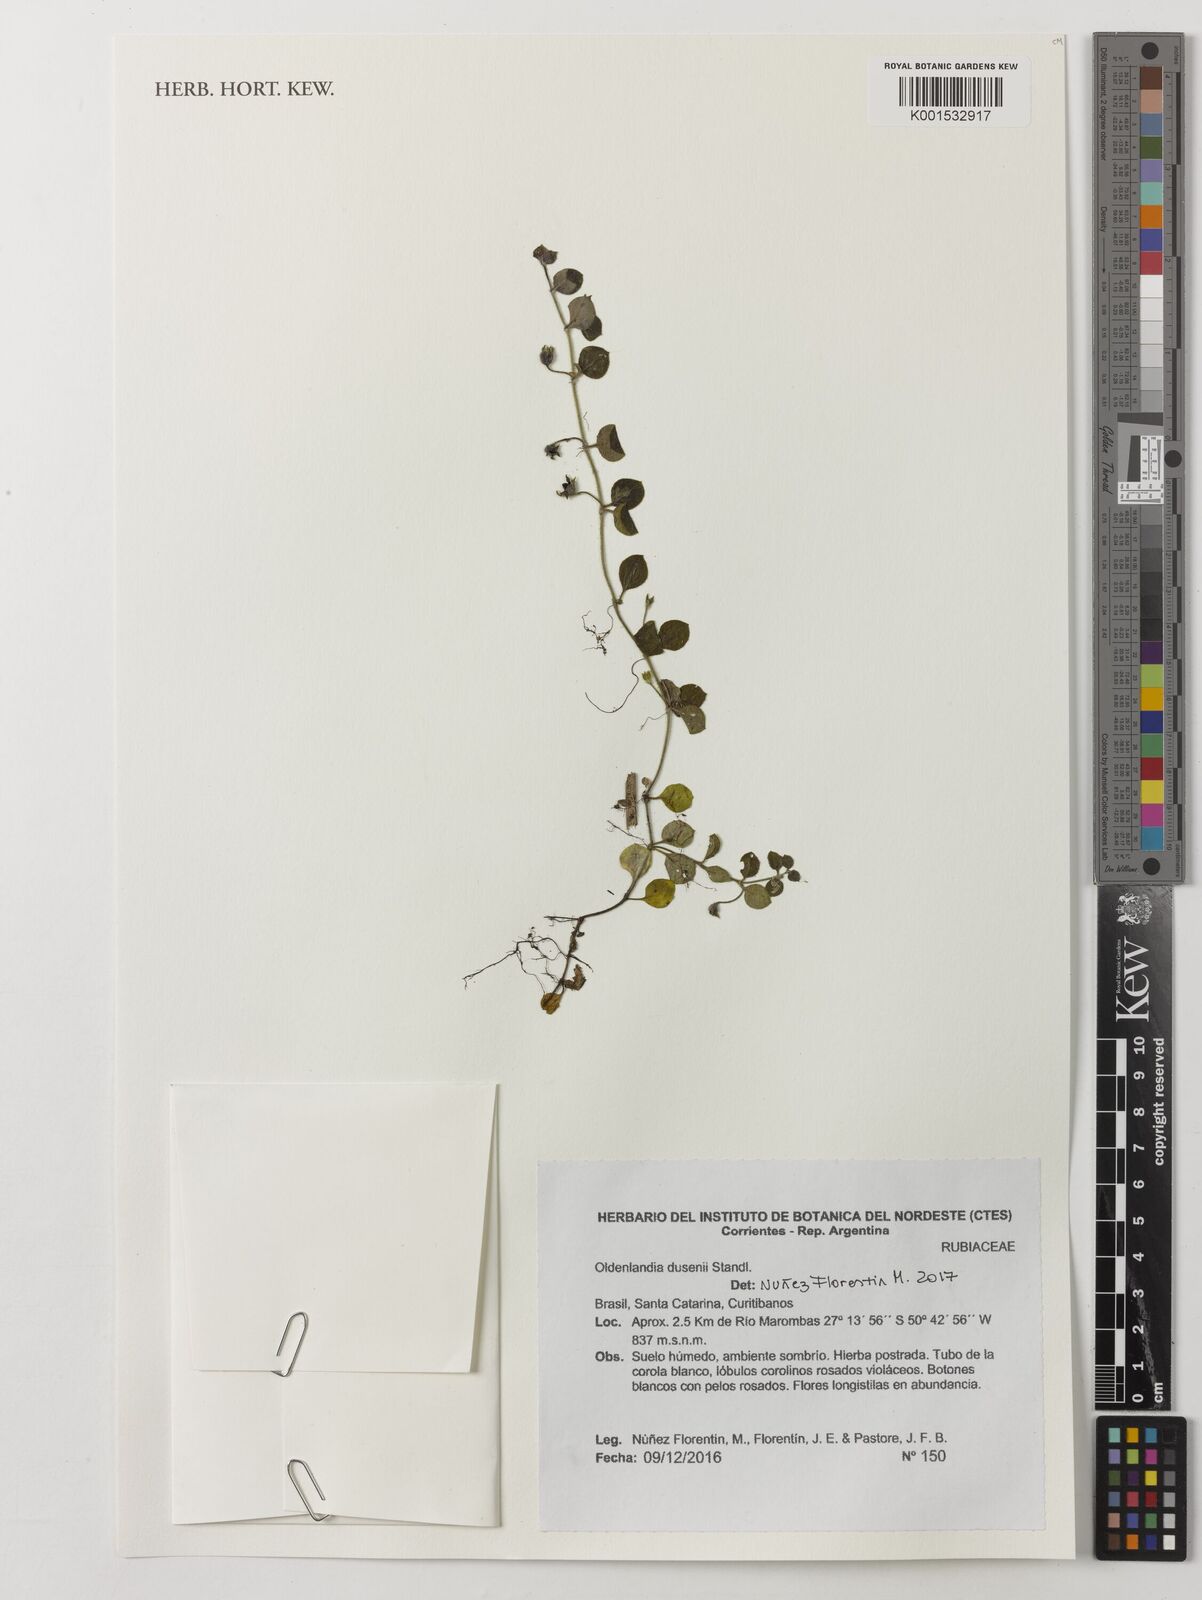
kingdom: Plantae
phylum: Tracheophyta
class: Magnoliopsida
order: Gentianales
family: Rubiaceae
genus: Oldenlandia
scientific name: Oldenlandia dusenii
